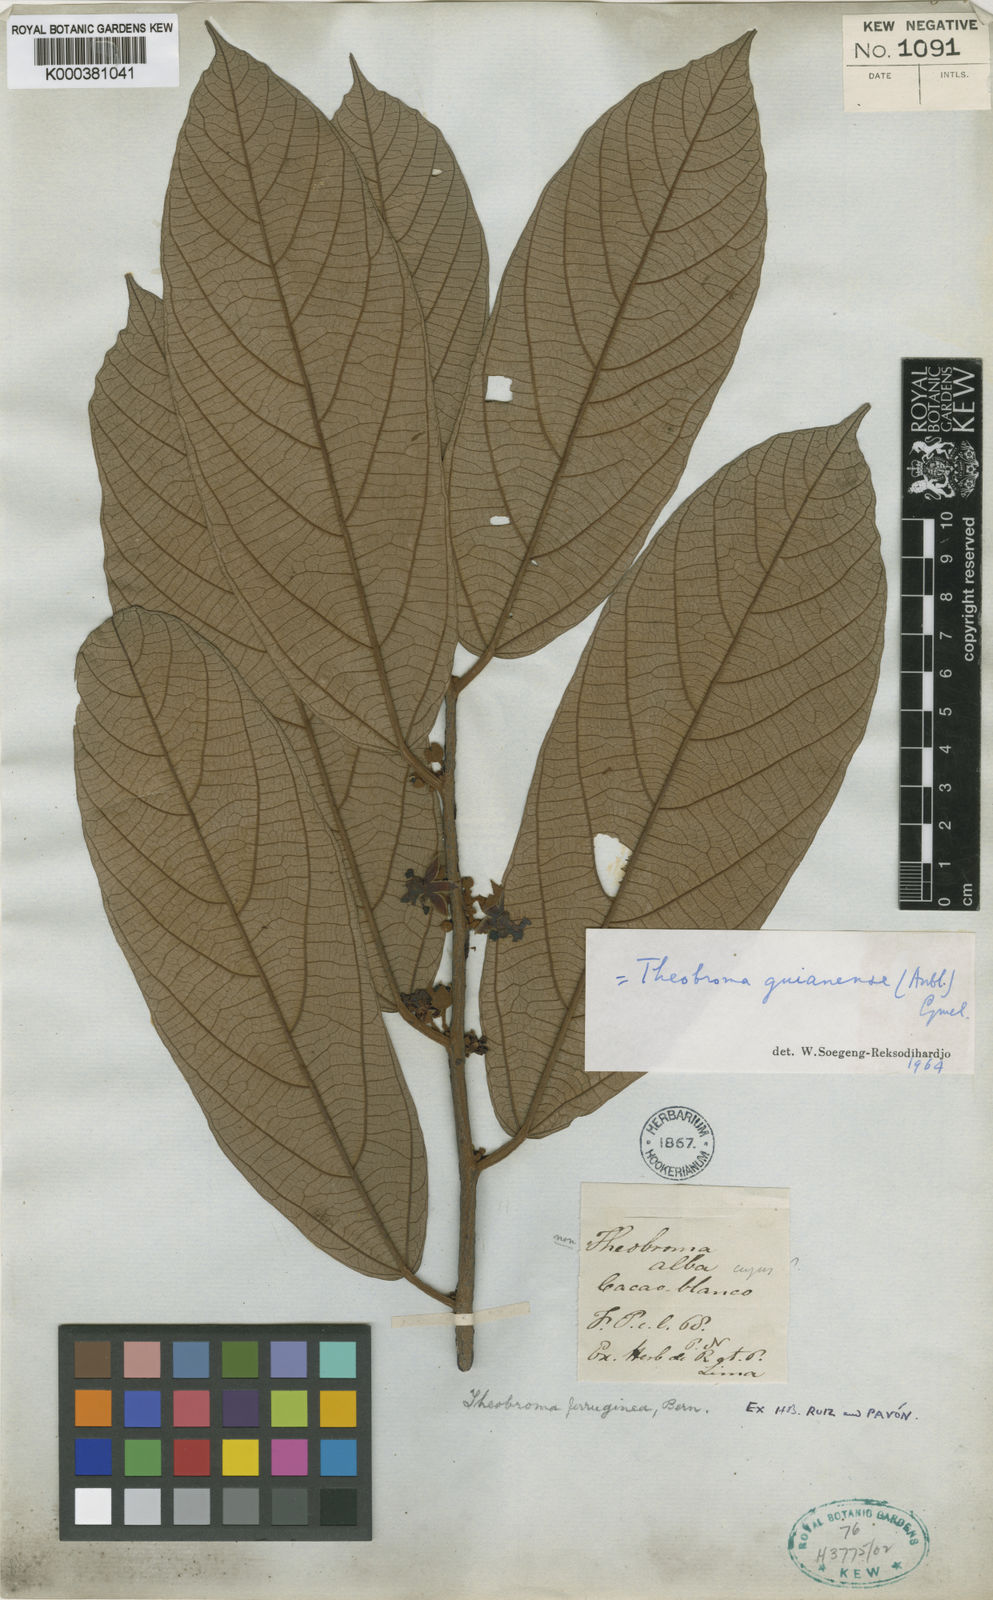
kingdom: Plantae
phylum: Tracheophyta
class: Magnoliopsida
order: Malvales
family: Malvaceae
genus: Theobroma
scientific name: Theobroma subincanum
